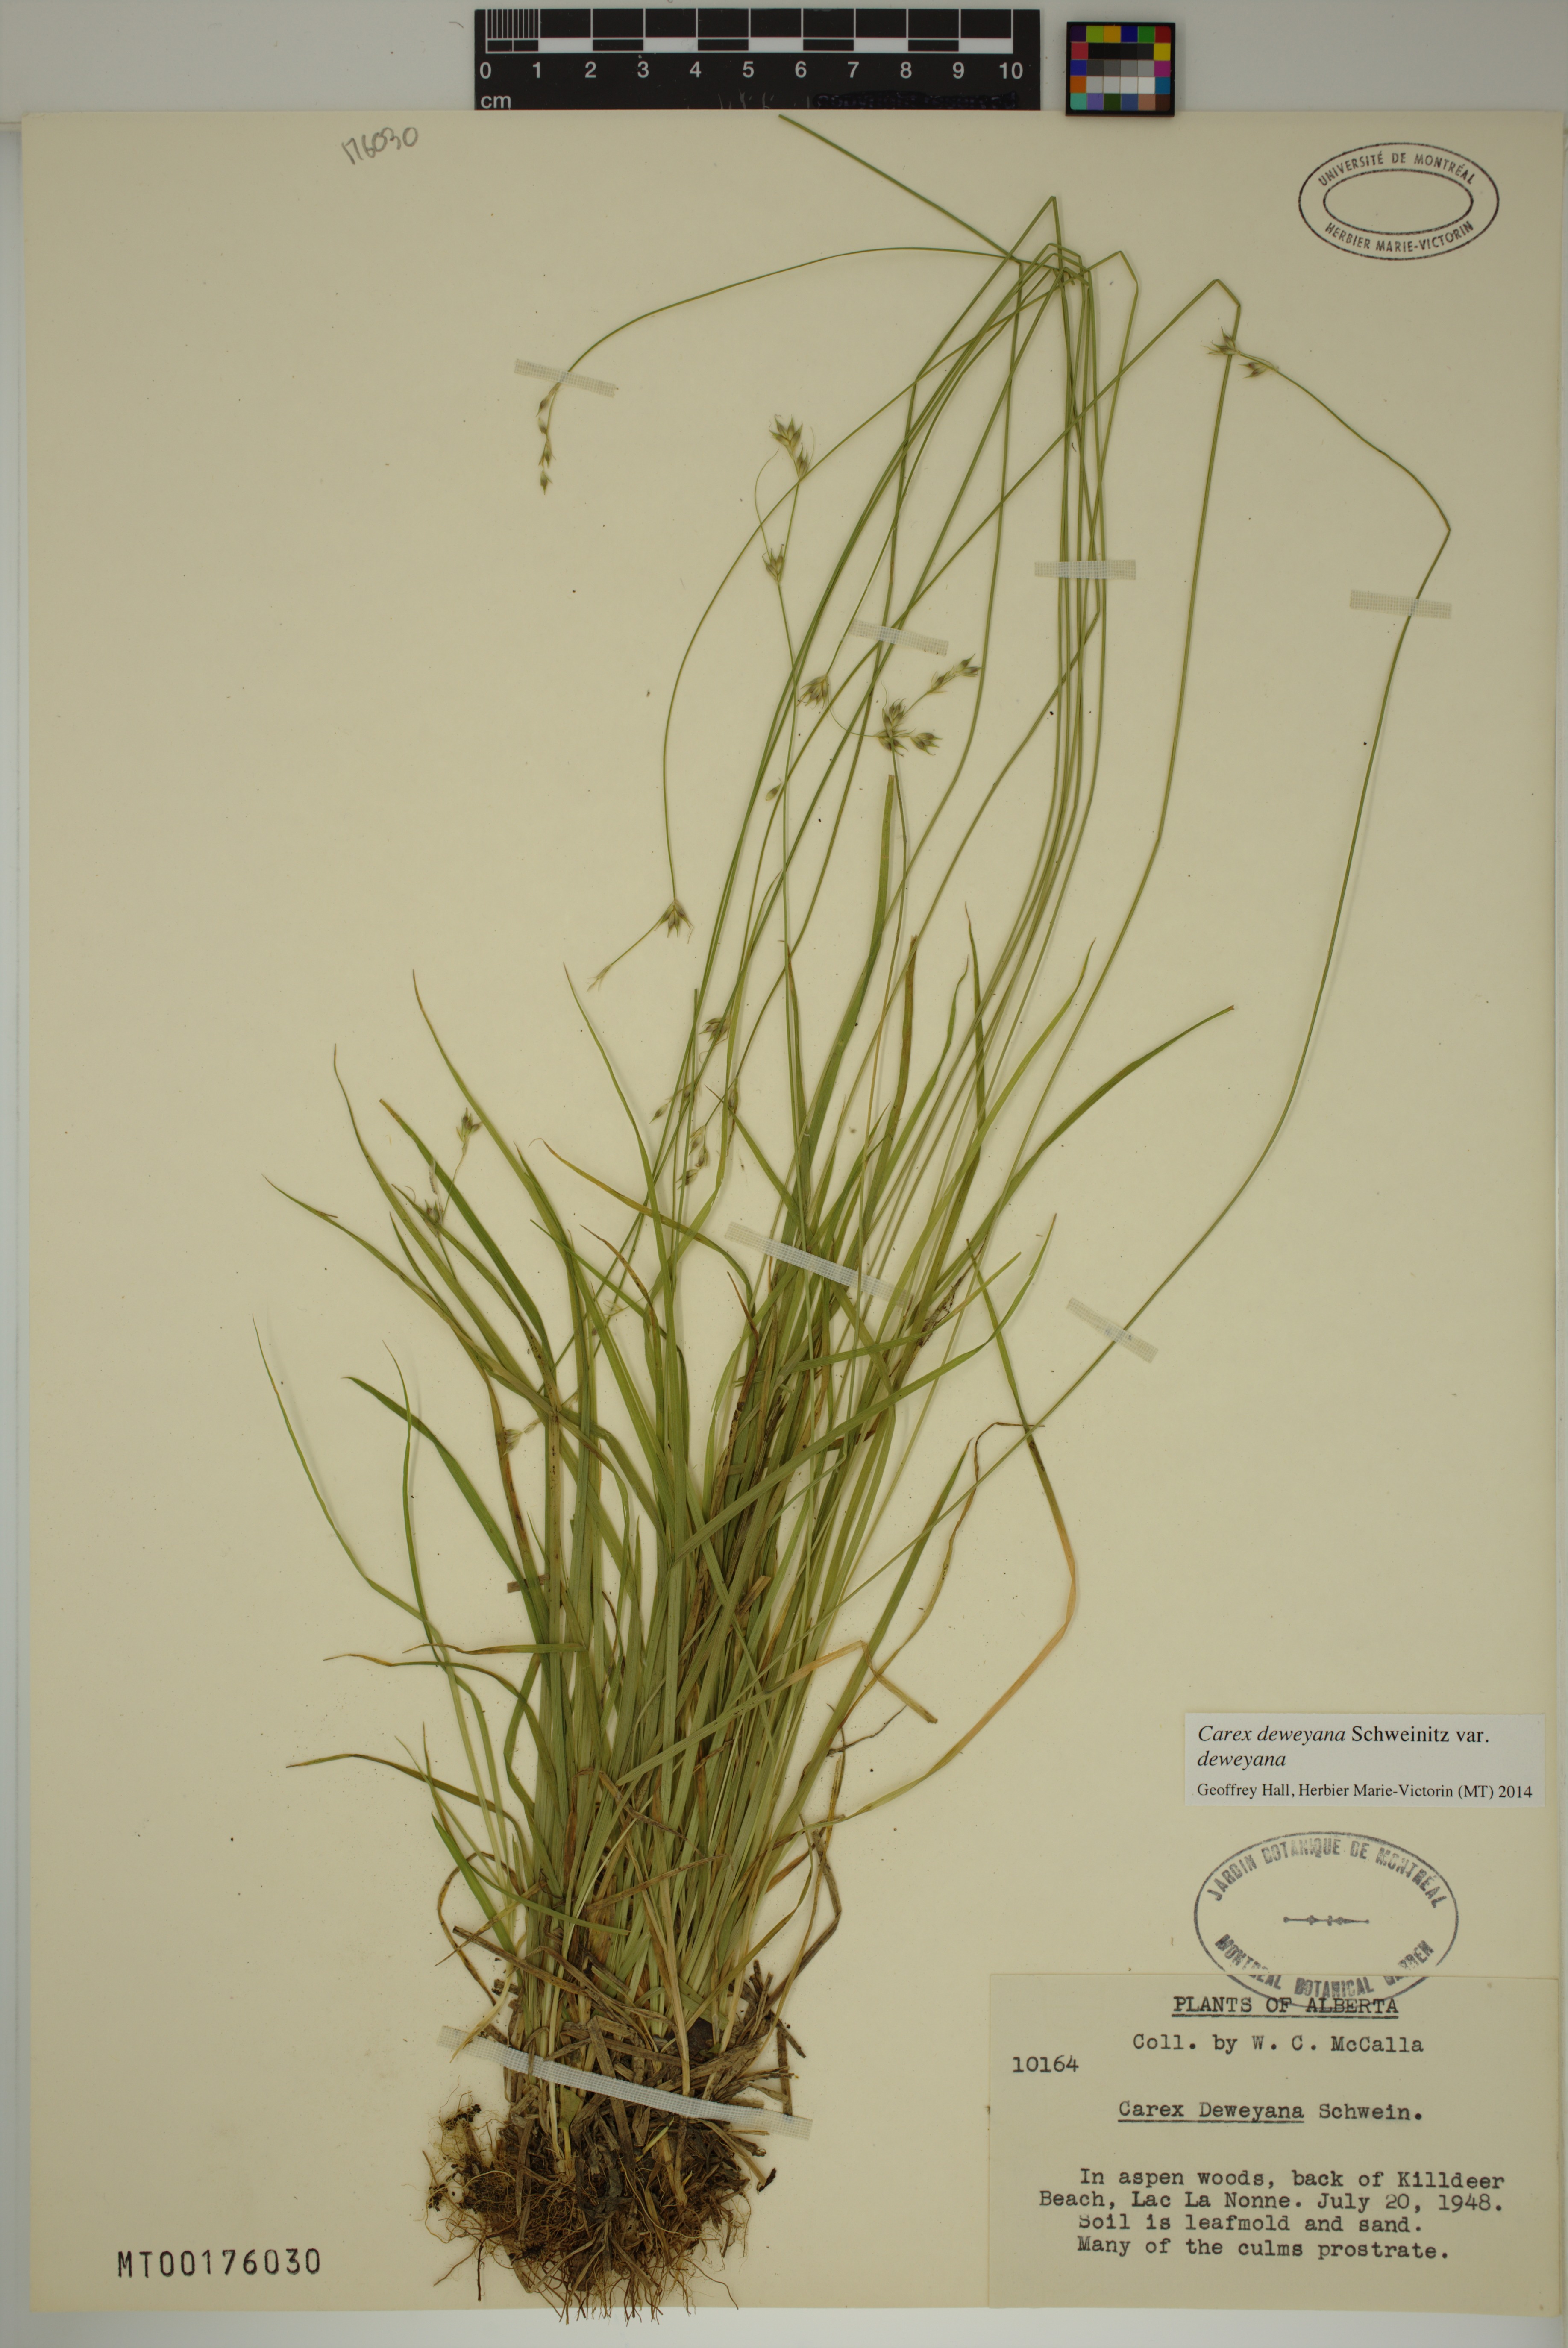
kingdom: Plantae
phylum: Tracheophyta
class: Liliopsida
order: Poales
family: Cyperaceae
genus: Carex
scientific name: Carex deweyana
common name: Dewey's sedge
